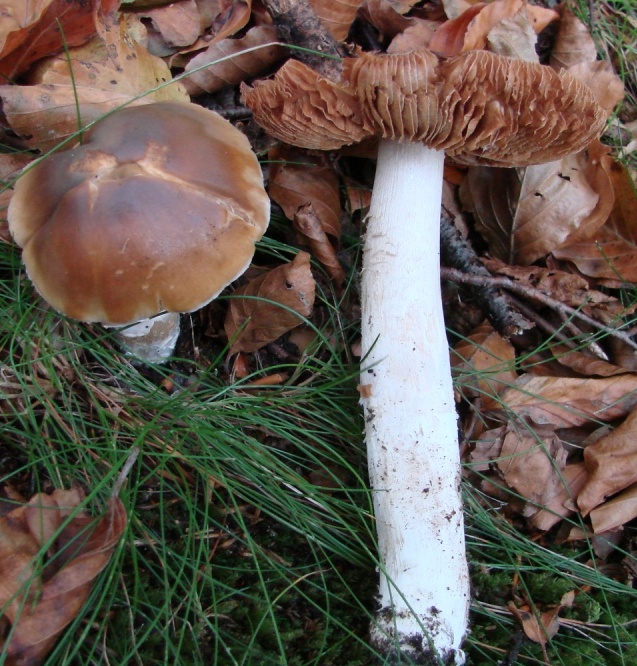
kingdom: Fungi
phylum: Basidiomycota
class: Agaricomycetes
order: Agaricales
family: Cortinariaceae
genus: Cortinarius
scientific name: Cortinarius elatior
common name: høj slørhat
